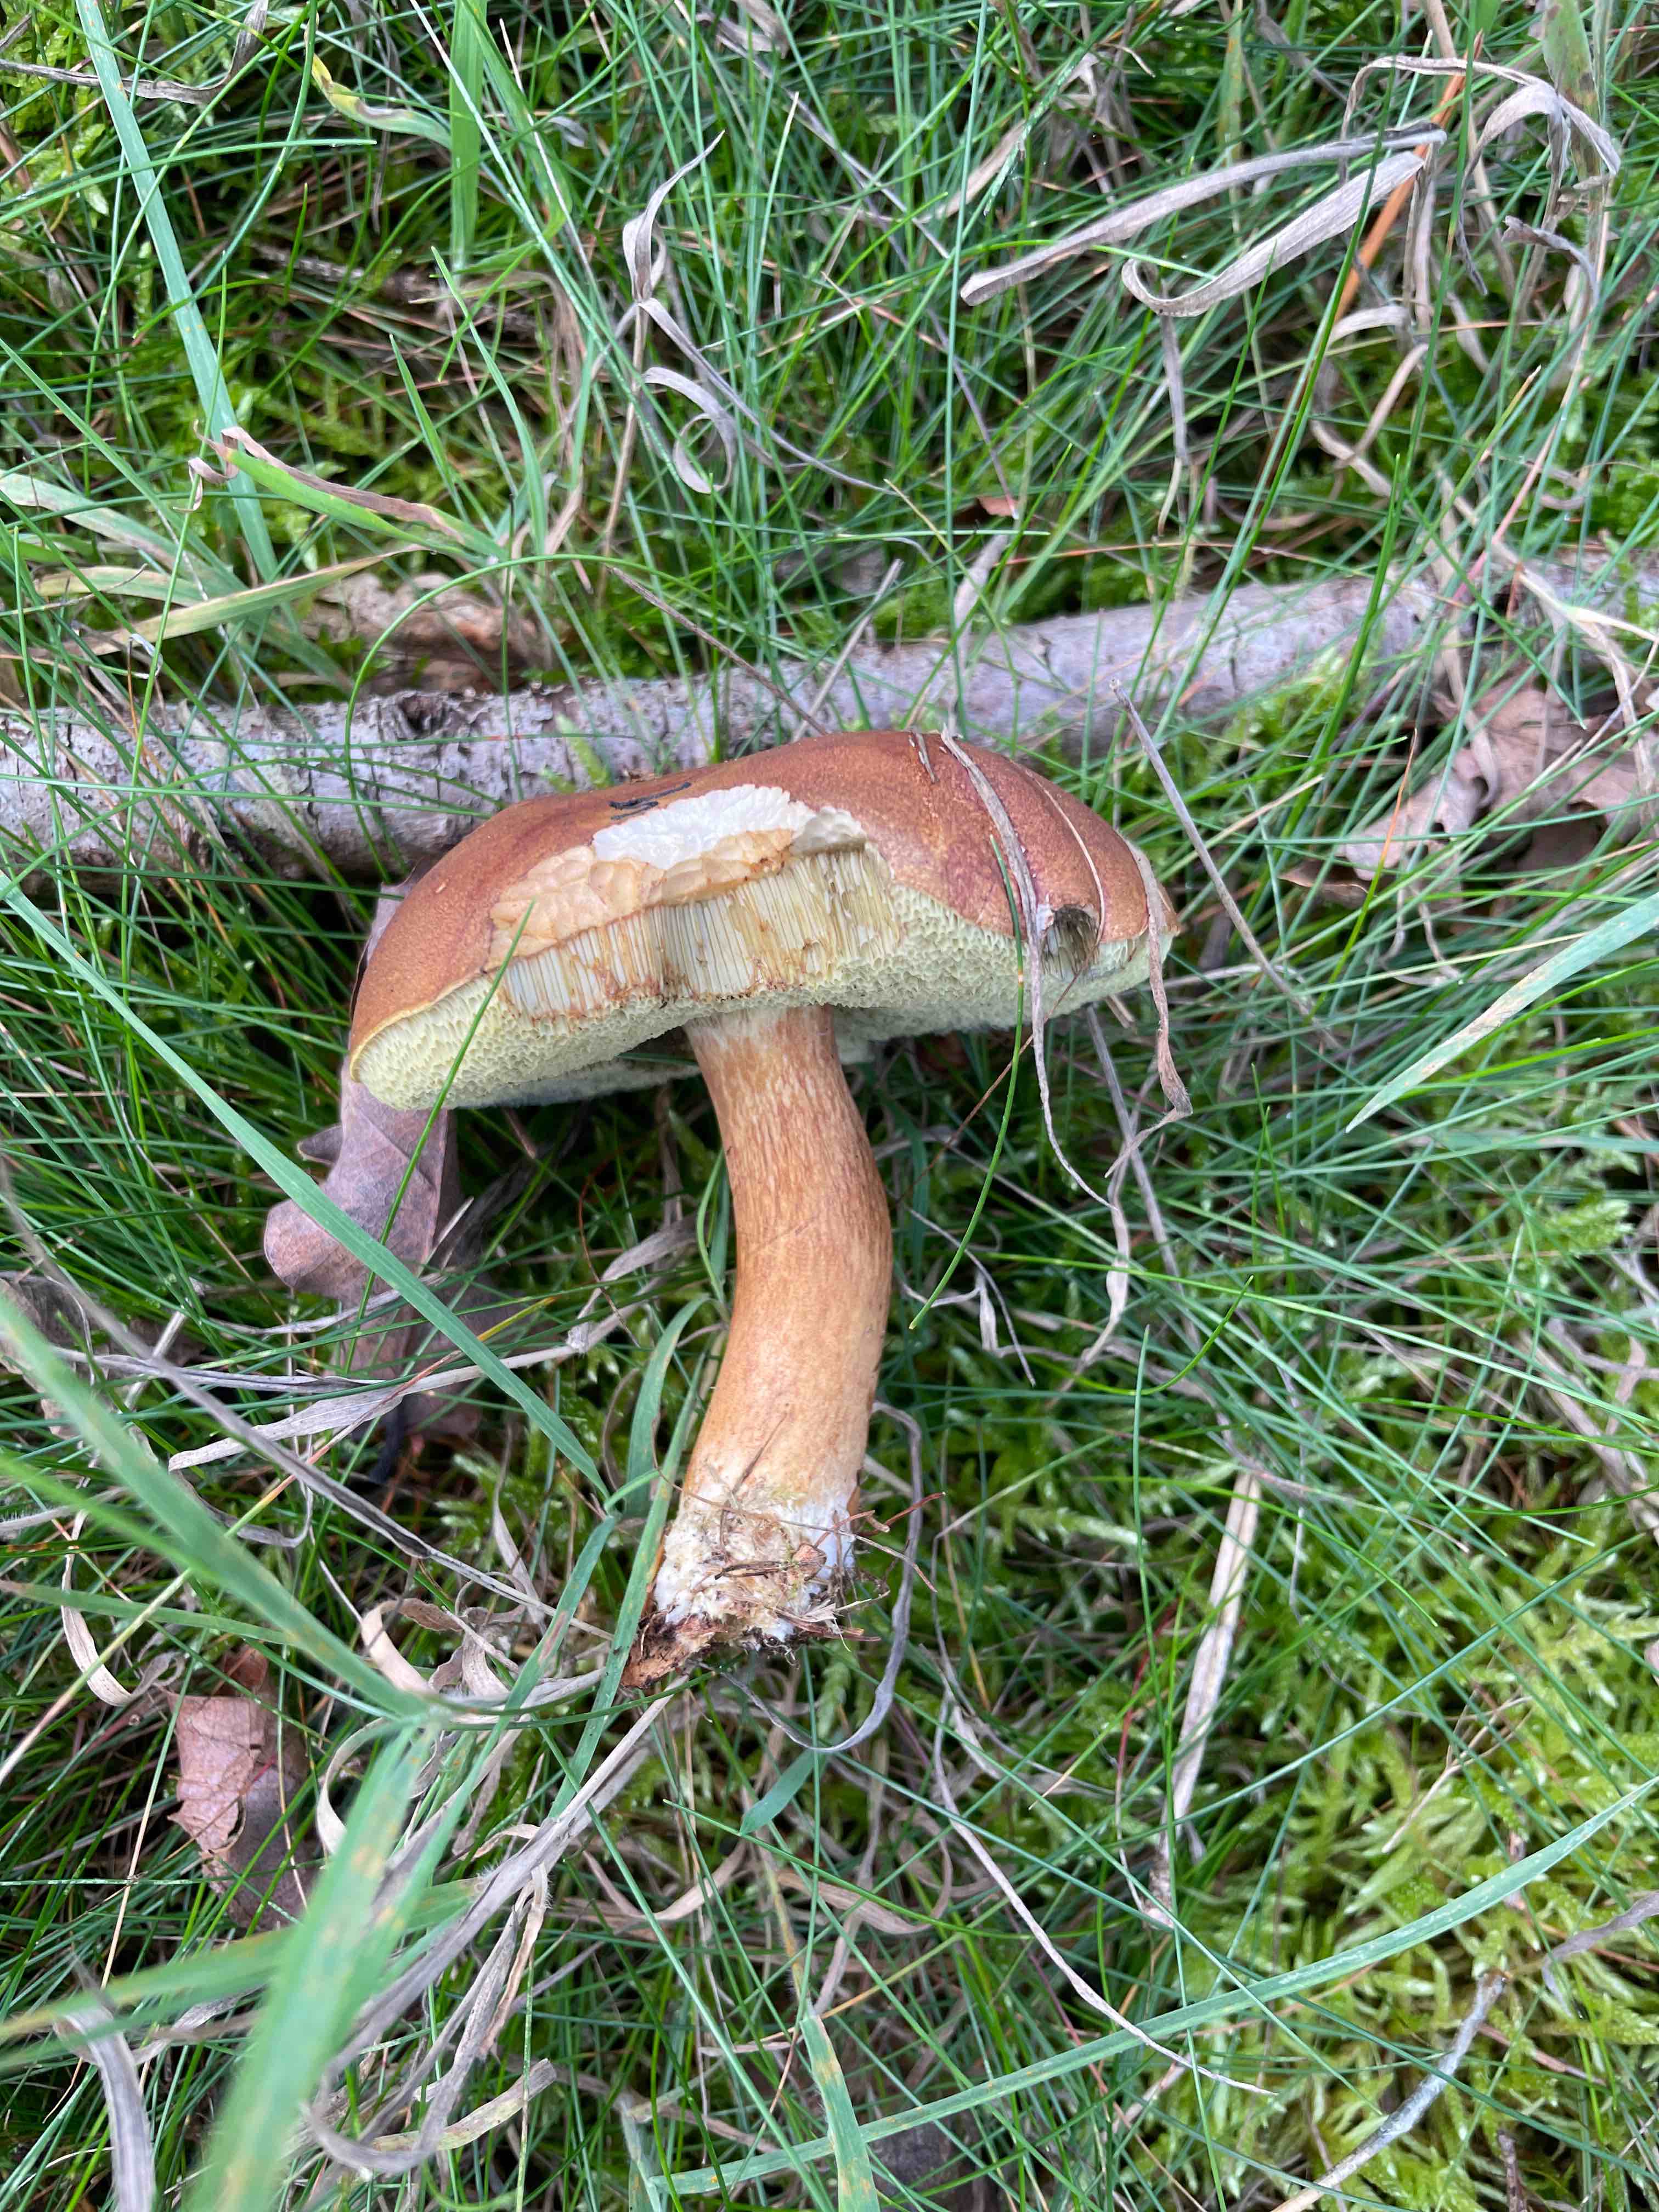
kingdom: Fungi
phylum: Basidiomycota
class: Agaricomycetes
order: Boletales
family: Boletaceae
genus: Imleria
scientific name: Imleria badia
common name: brunstokket rørhat
